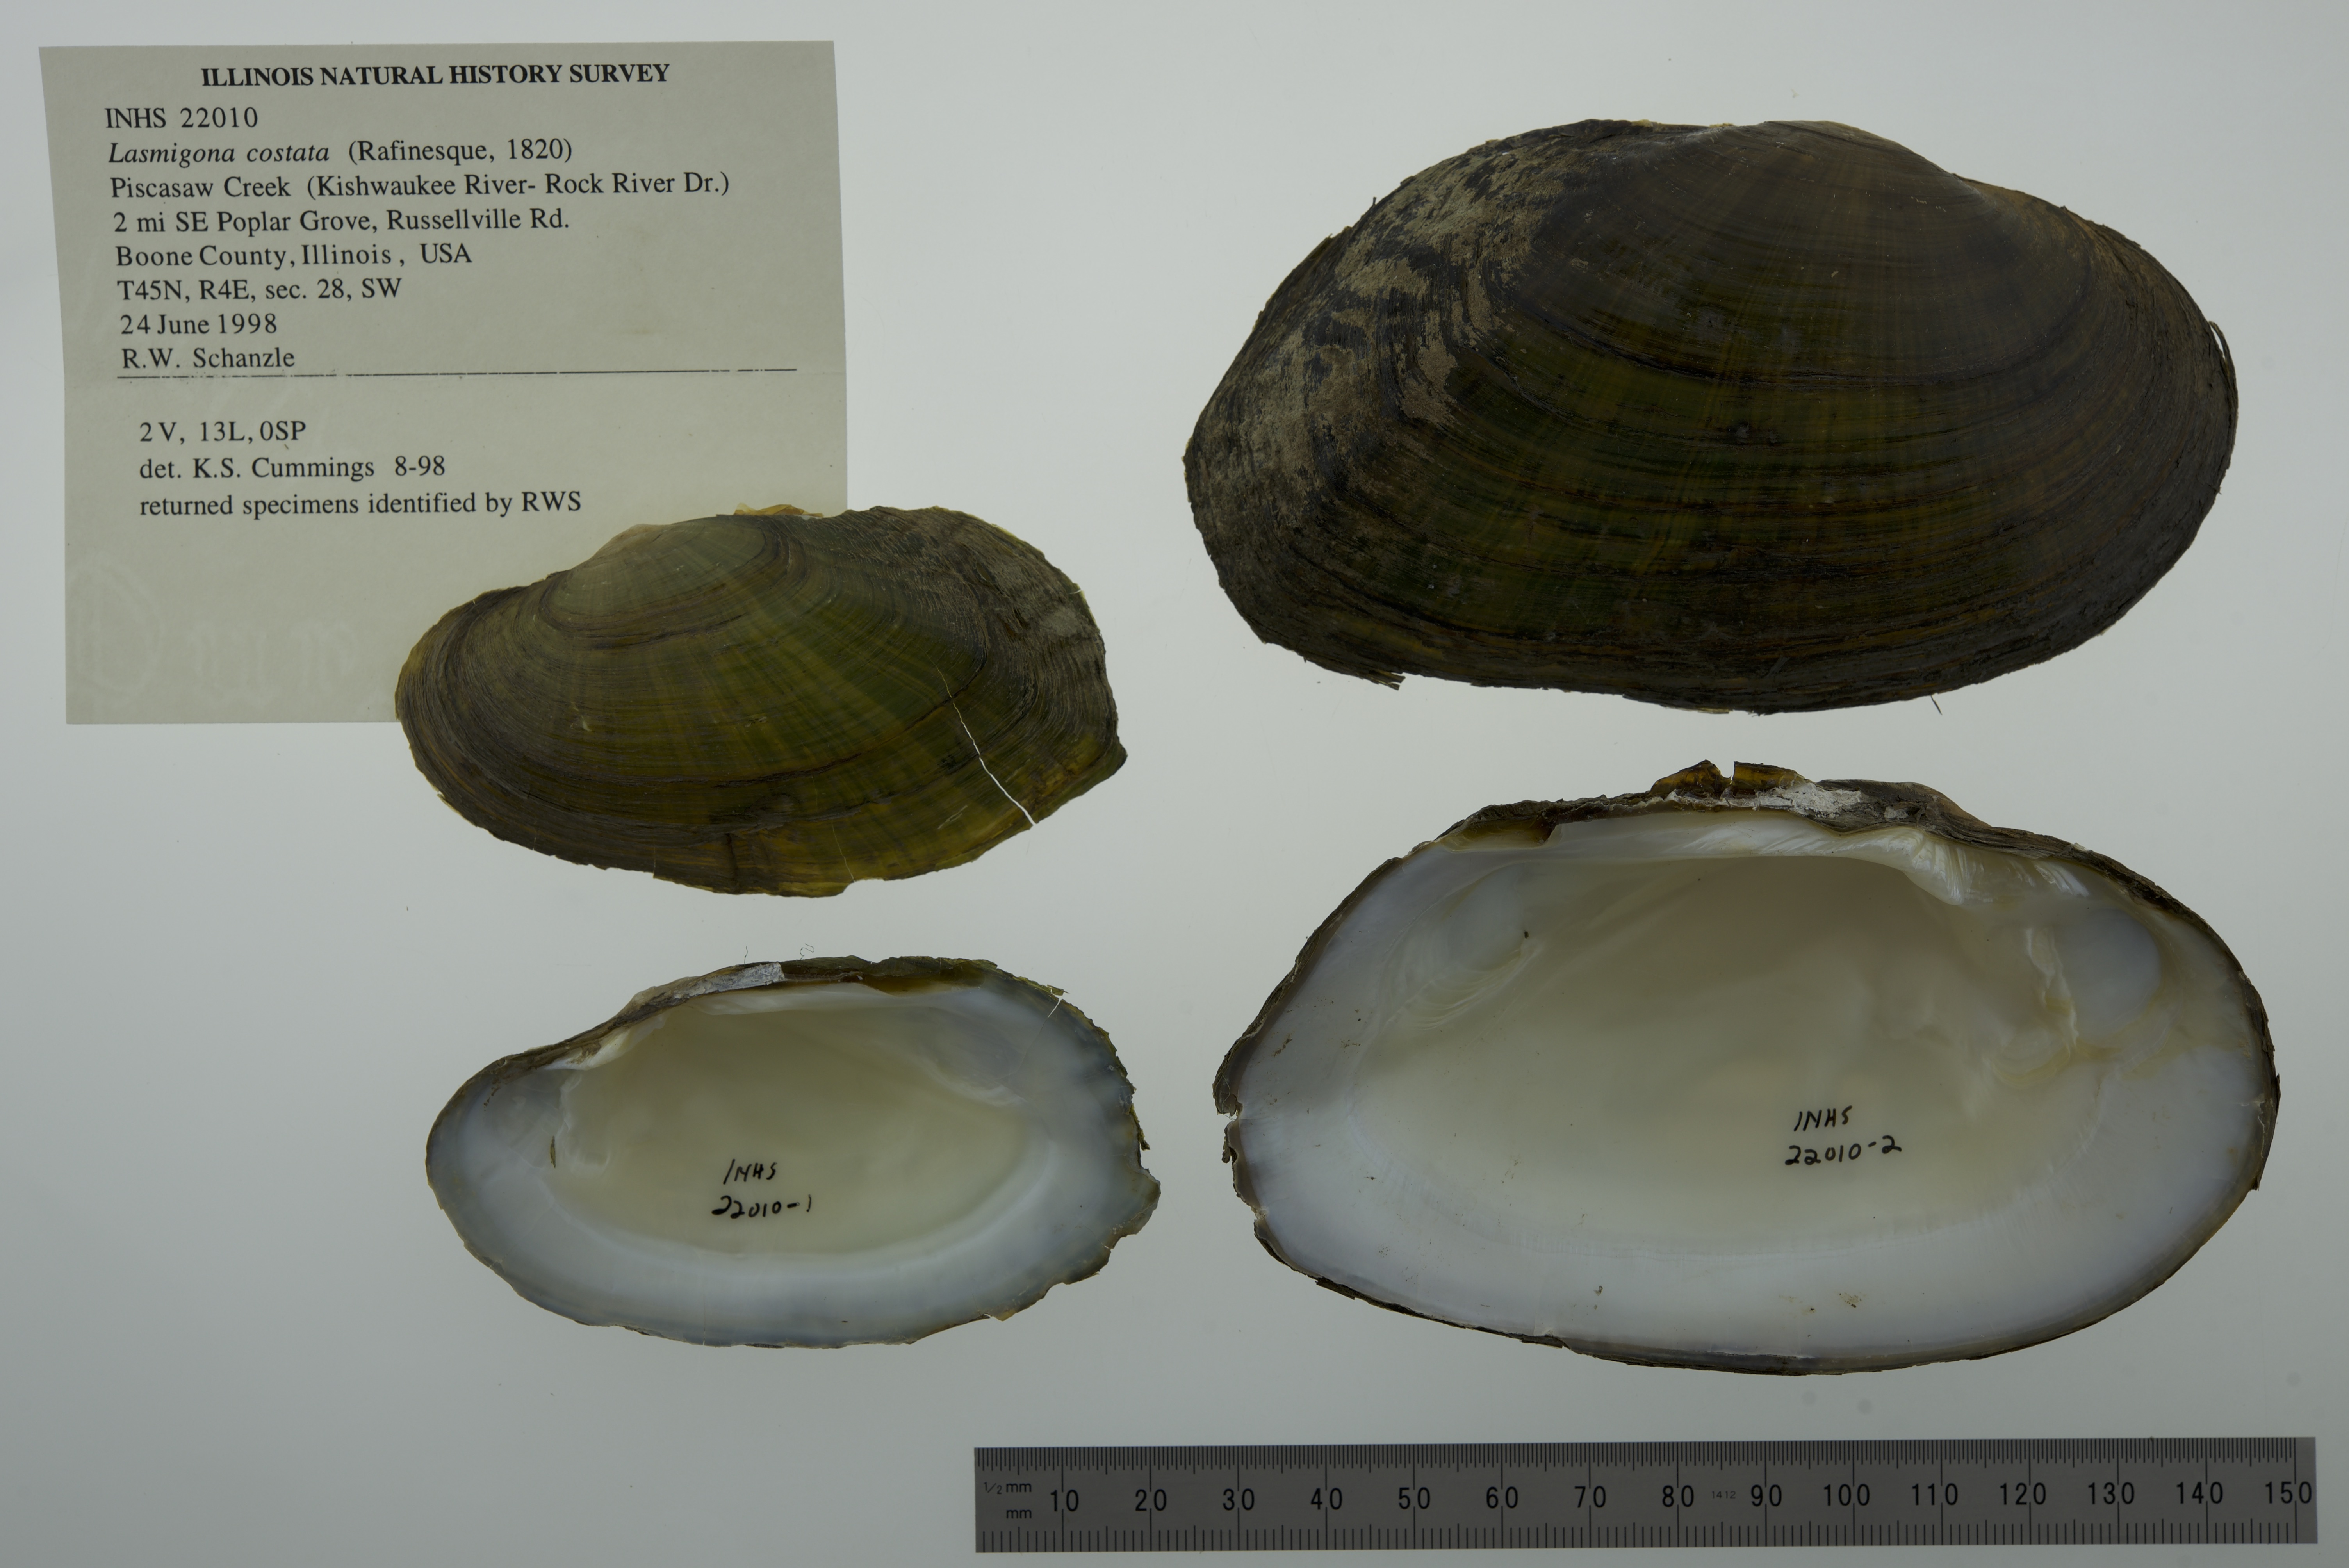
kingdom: Animalia
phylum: Mollusca
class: Bivalvia
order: Unionida
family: Unionidae
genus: Lasmigona
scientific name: Lasmigona costata
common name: Flutedshell
